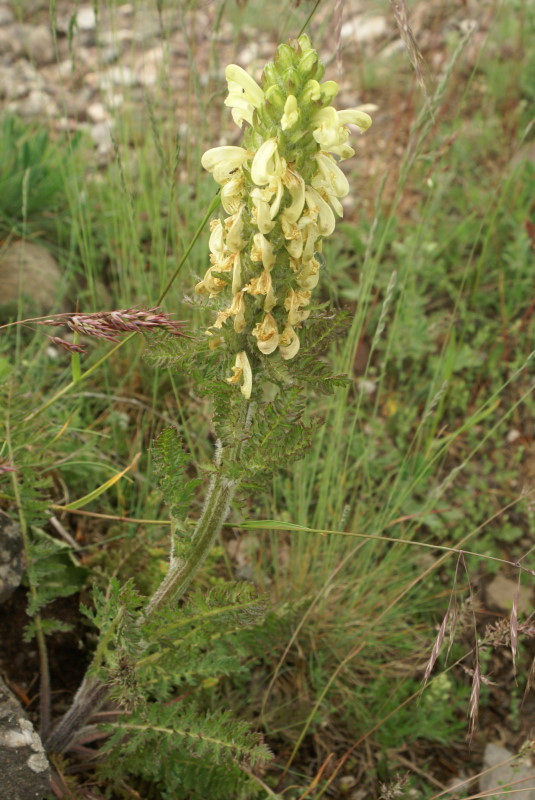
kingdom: Plantae
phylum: Tracheophyta
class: Magnoliopsida
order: Caryophyllales
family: Caryophyllaceae
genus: Paronychia
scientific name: Paronychia cephalotes
